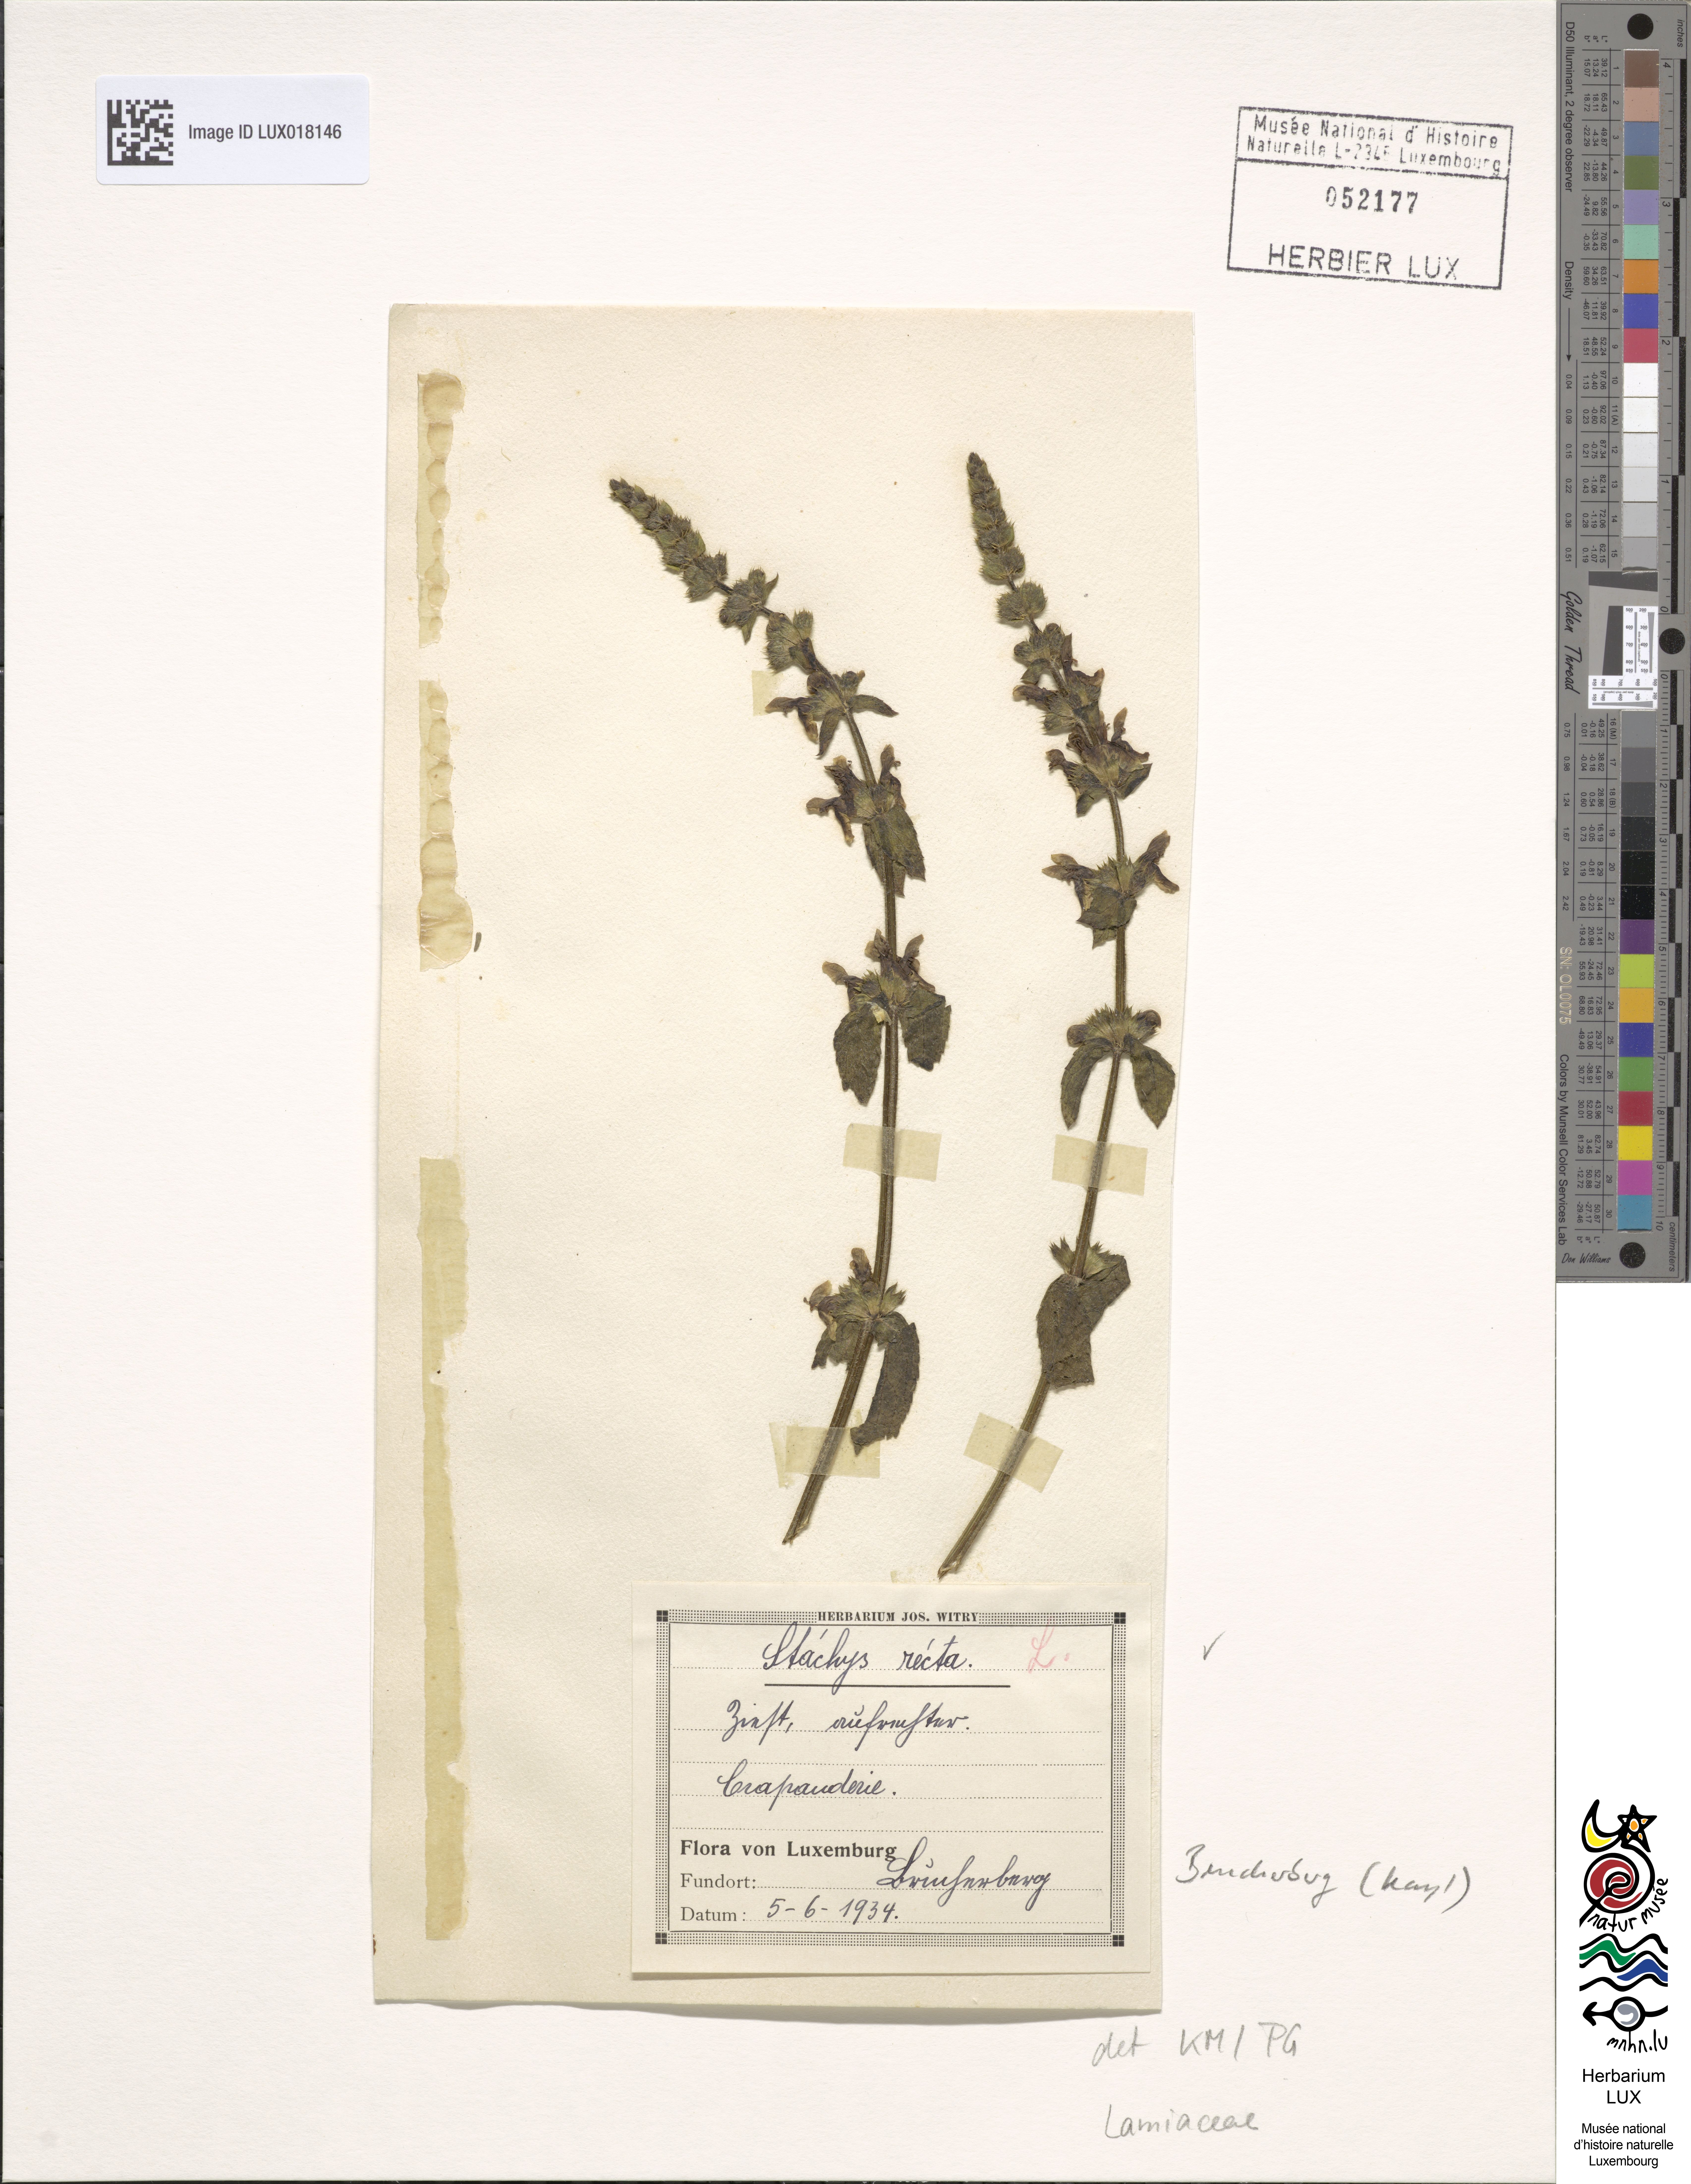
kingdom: Plantae
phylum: Tracheophyta
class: Magnoliopsida
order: Lamiales
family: Lamiaceae
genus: Stachys
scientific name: Stachys recta
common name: Perennial yellow-woundwort
